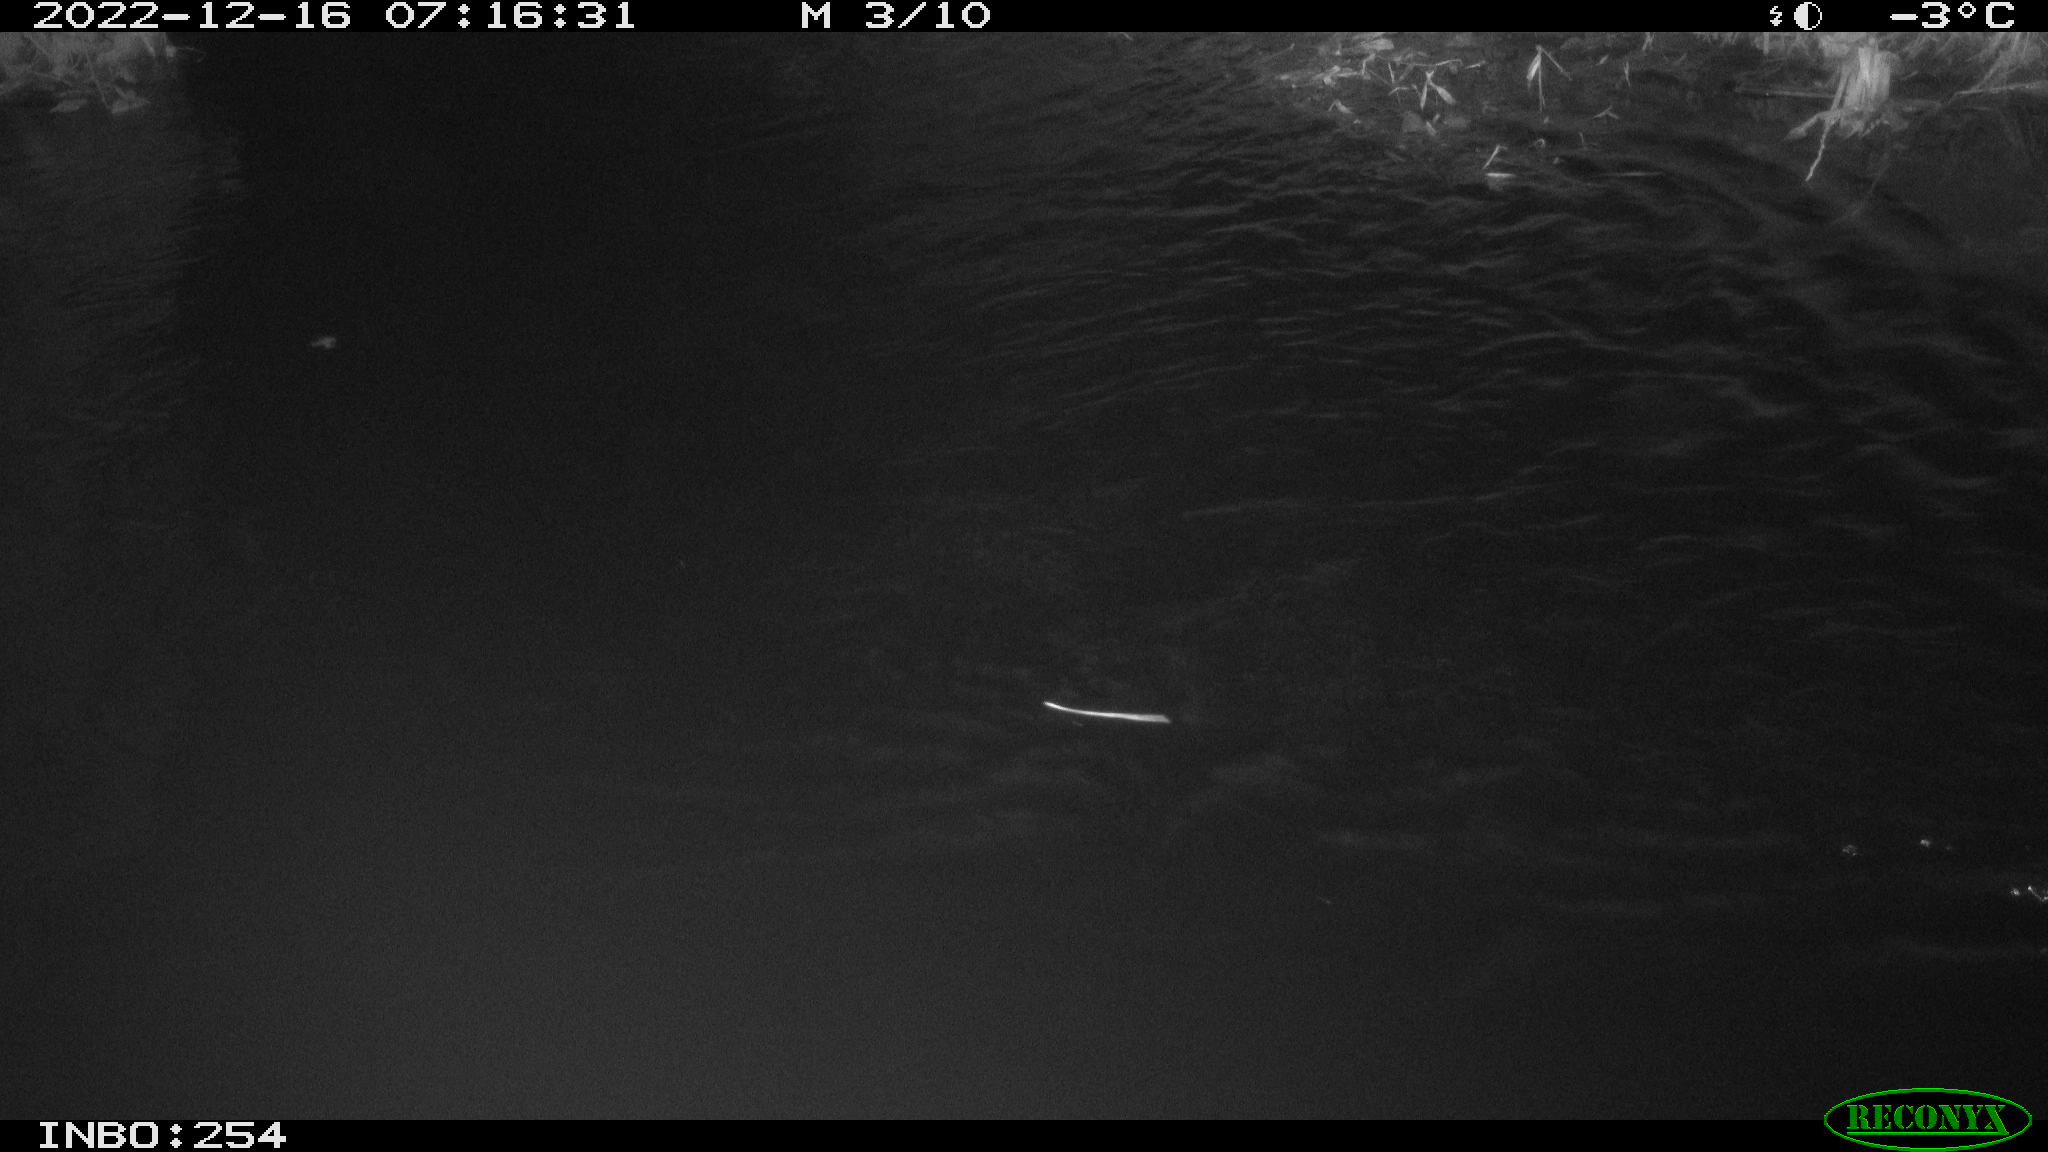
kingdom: Animalia
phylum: Chordata
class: Aves
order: Anseriformes
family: Anatidae
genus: Anas
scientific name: Anas
